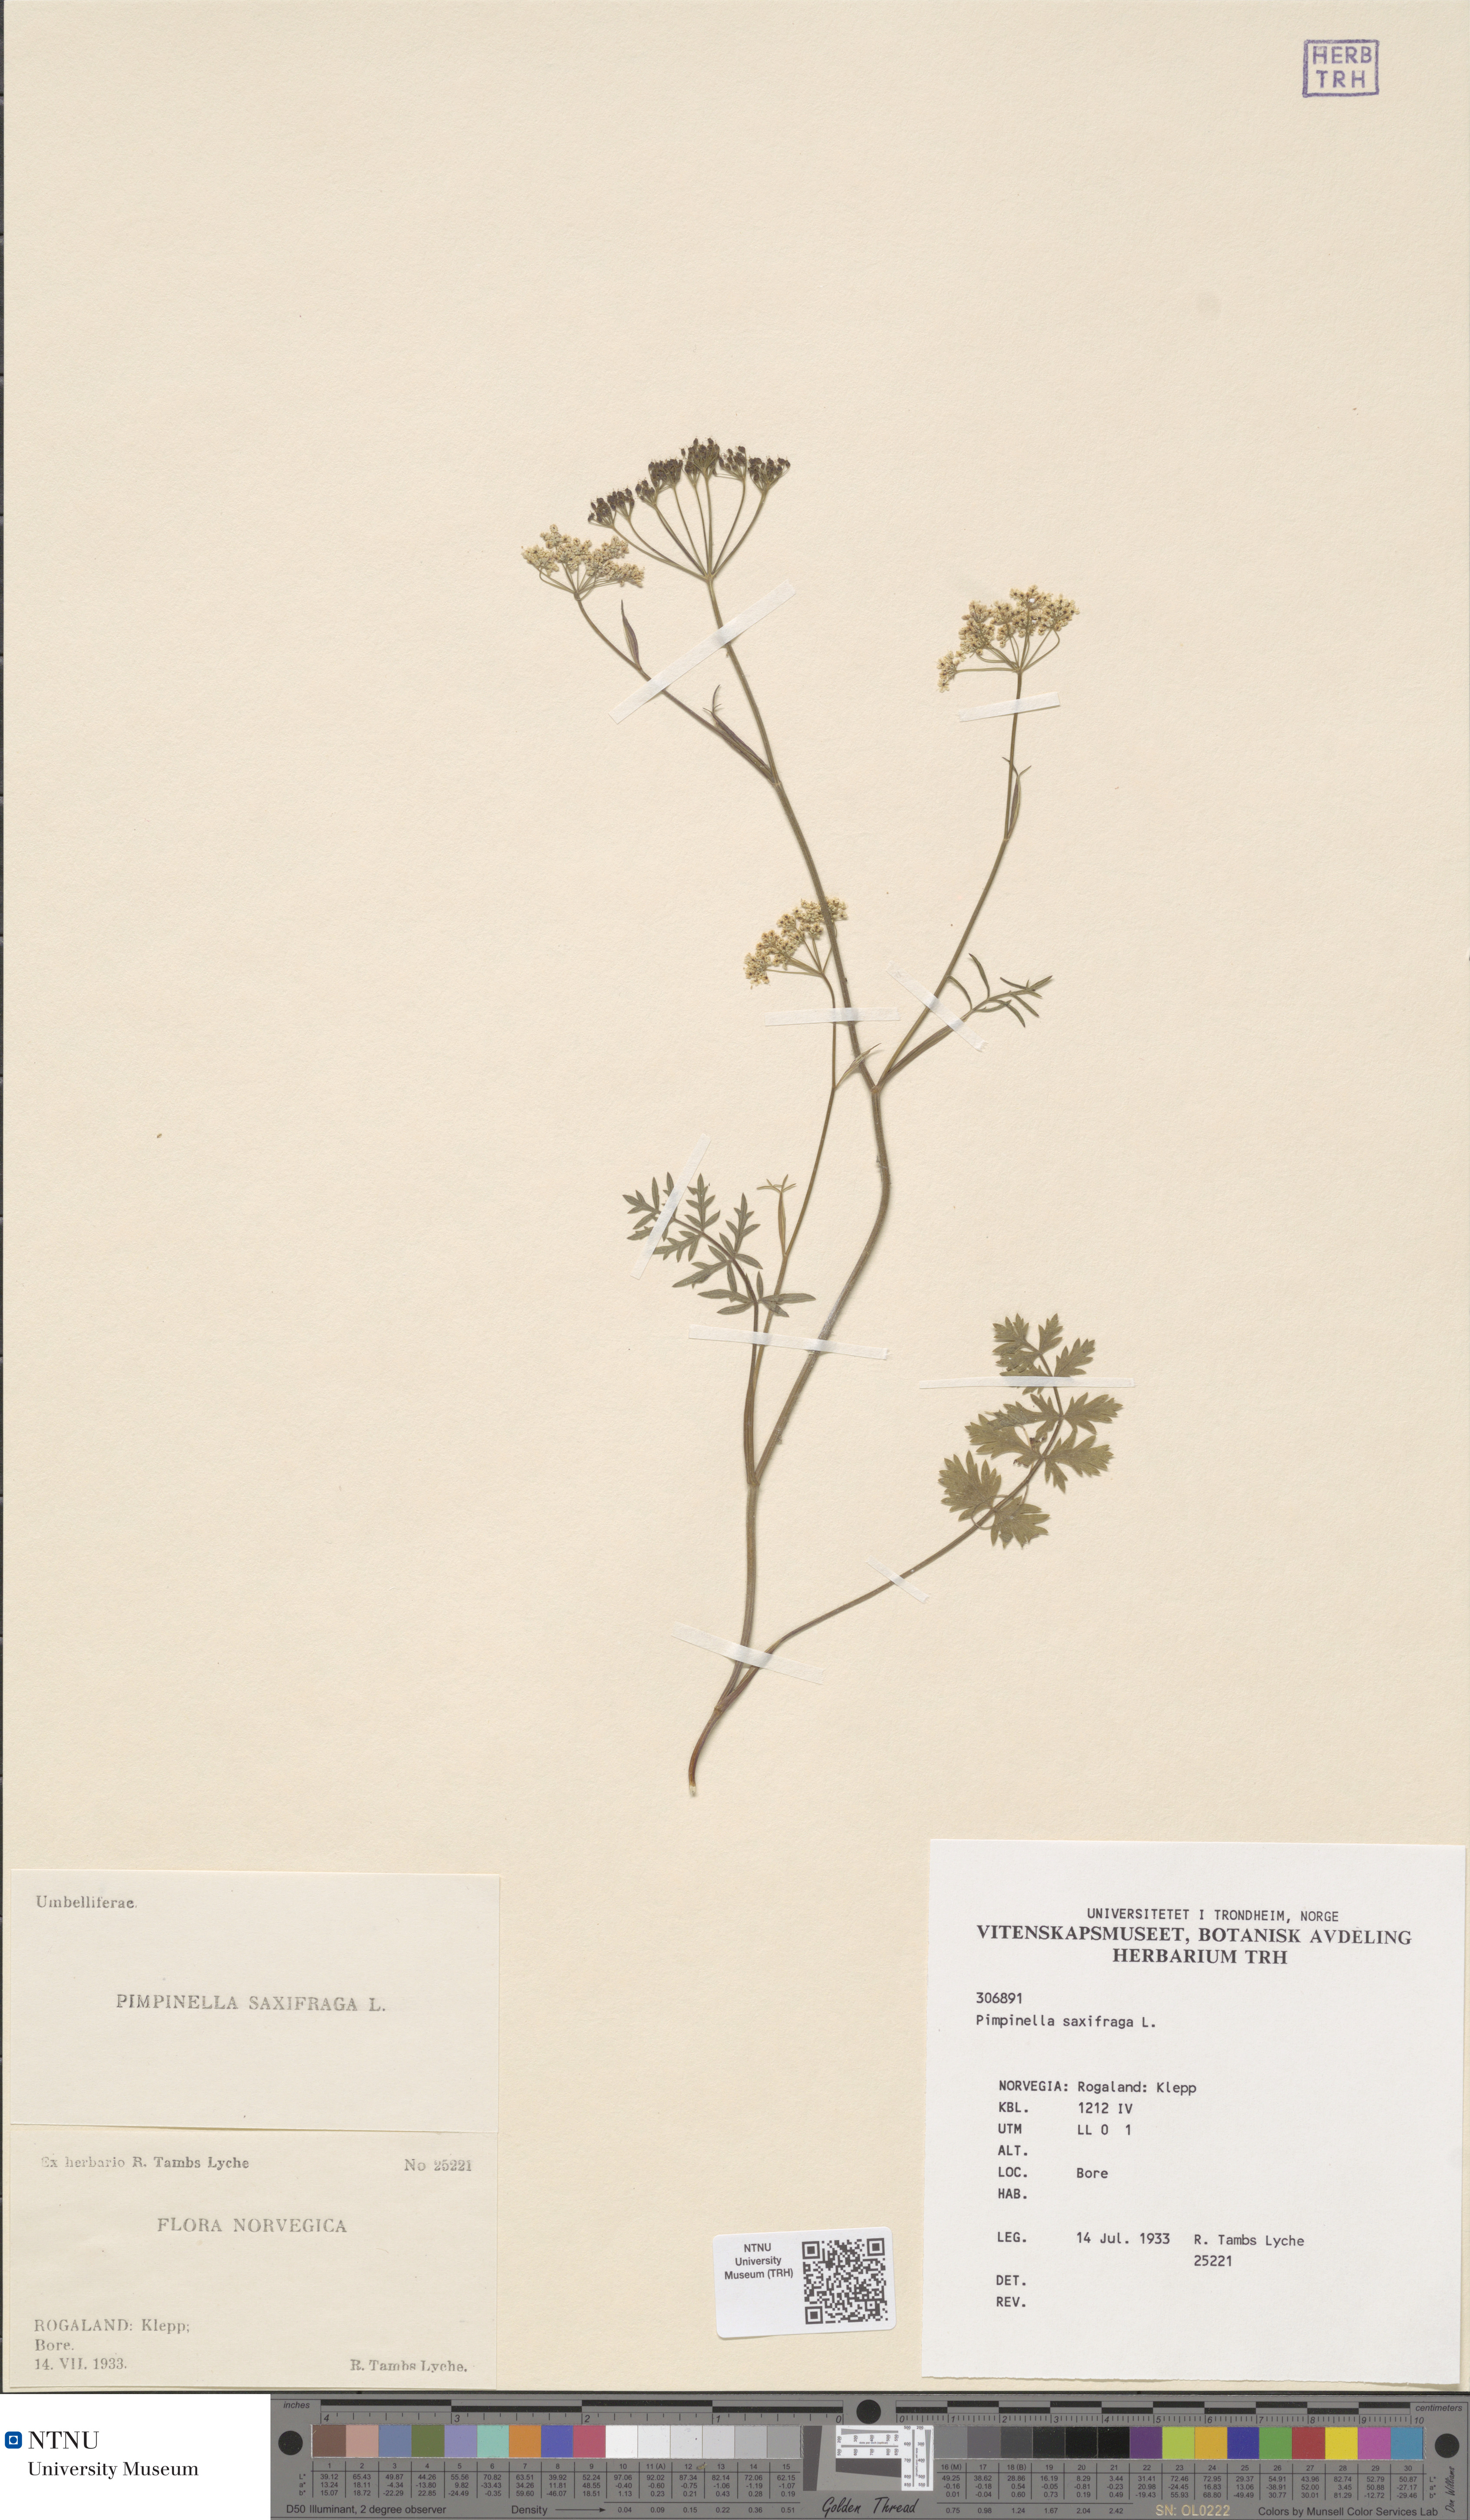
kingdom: Plantae
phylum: Tracheophyta
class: Magnoliopsida
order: Apiales
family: Apiaceae
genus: Pimpinella
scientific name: Pimpinella saxifraga
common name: Burnet-saxifrage
